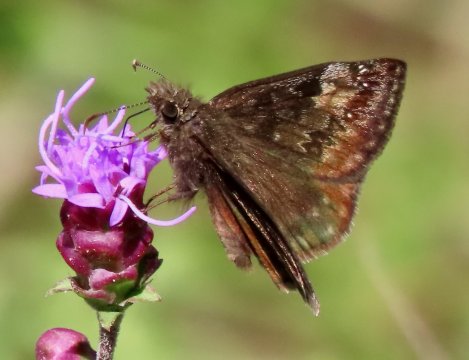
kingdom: Animalia
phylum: Arthropoda
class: Insecta
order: Lepidoptera
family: Hesperiidae
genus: Gesta
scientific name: Gesta
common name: Wild Indigo Duskywing
